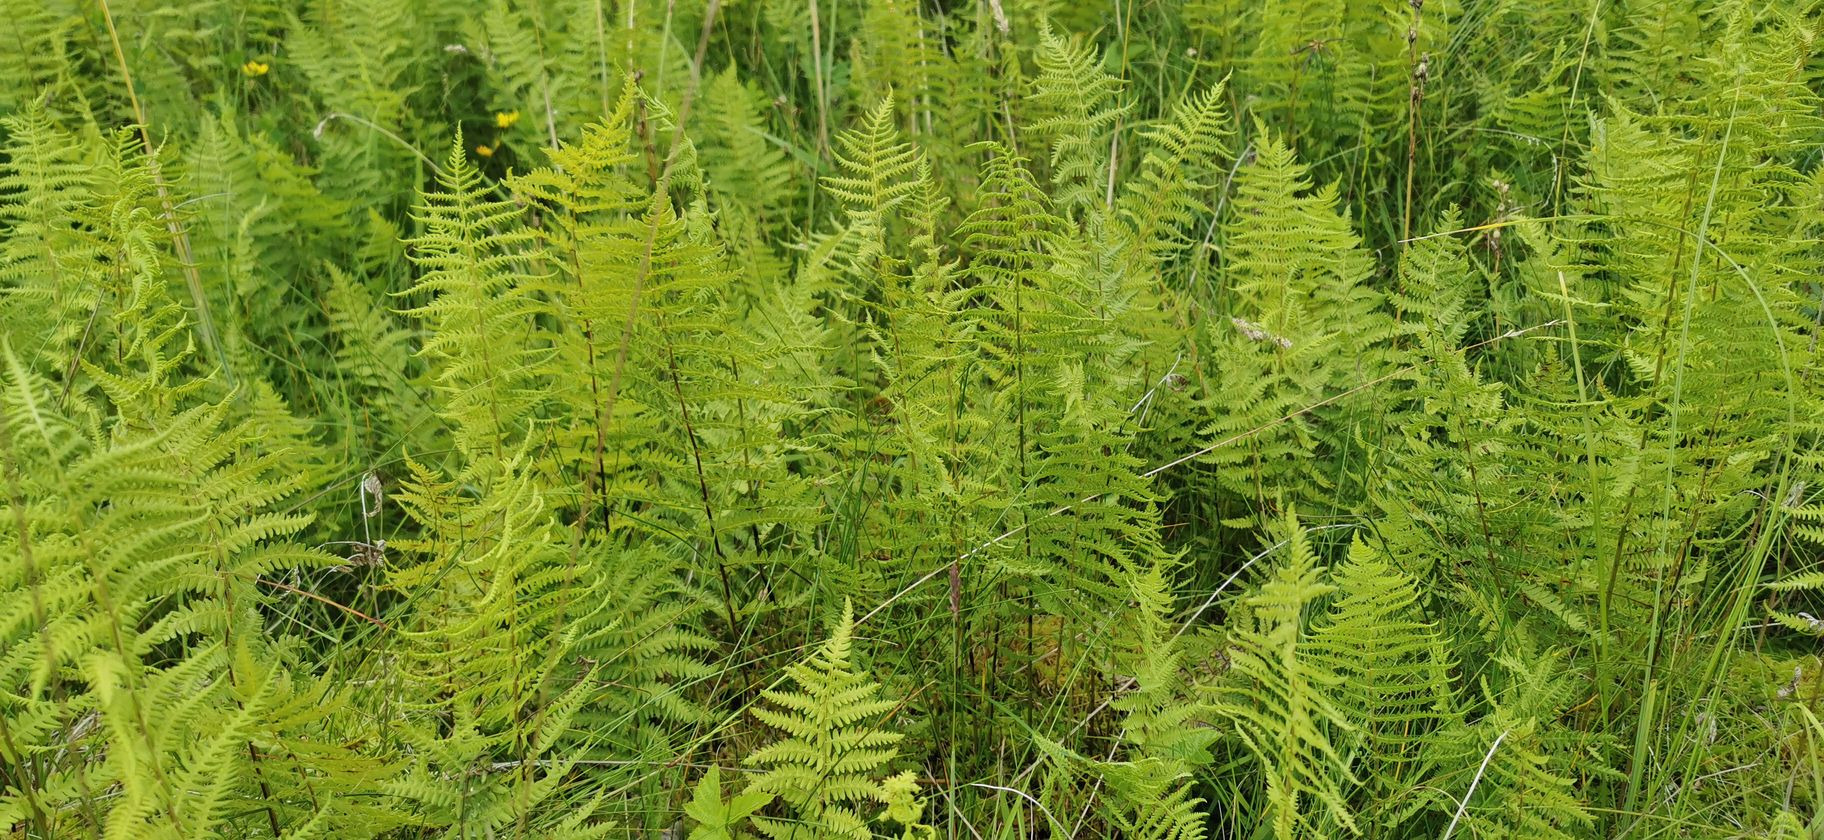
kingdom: Plantae
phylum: Tracheophyta
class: Polypodiopsida
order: Polypodiales
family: Thelypteridaceae
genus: Thelypteris
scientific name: Thelypteris palustris
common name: Kærmangeløv
